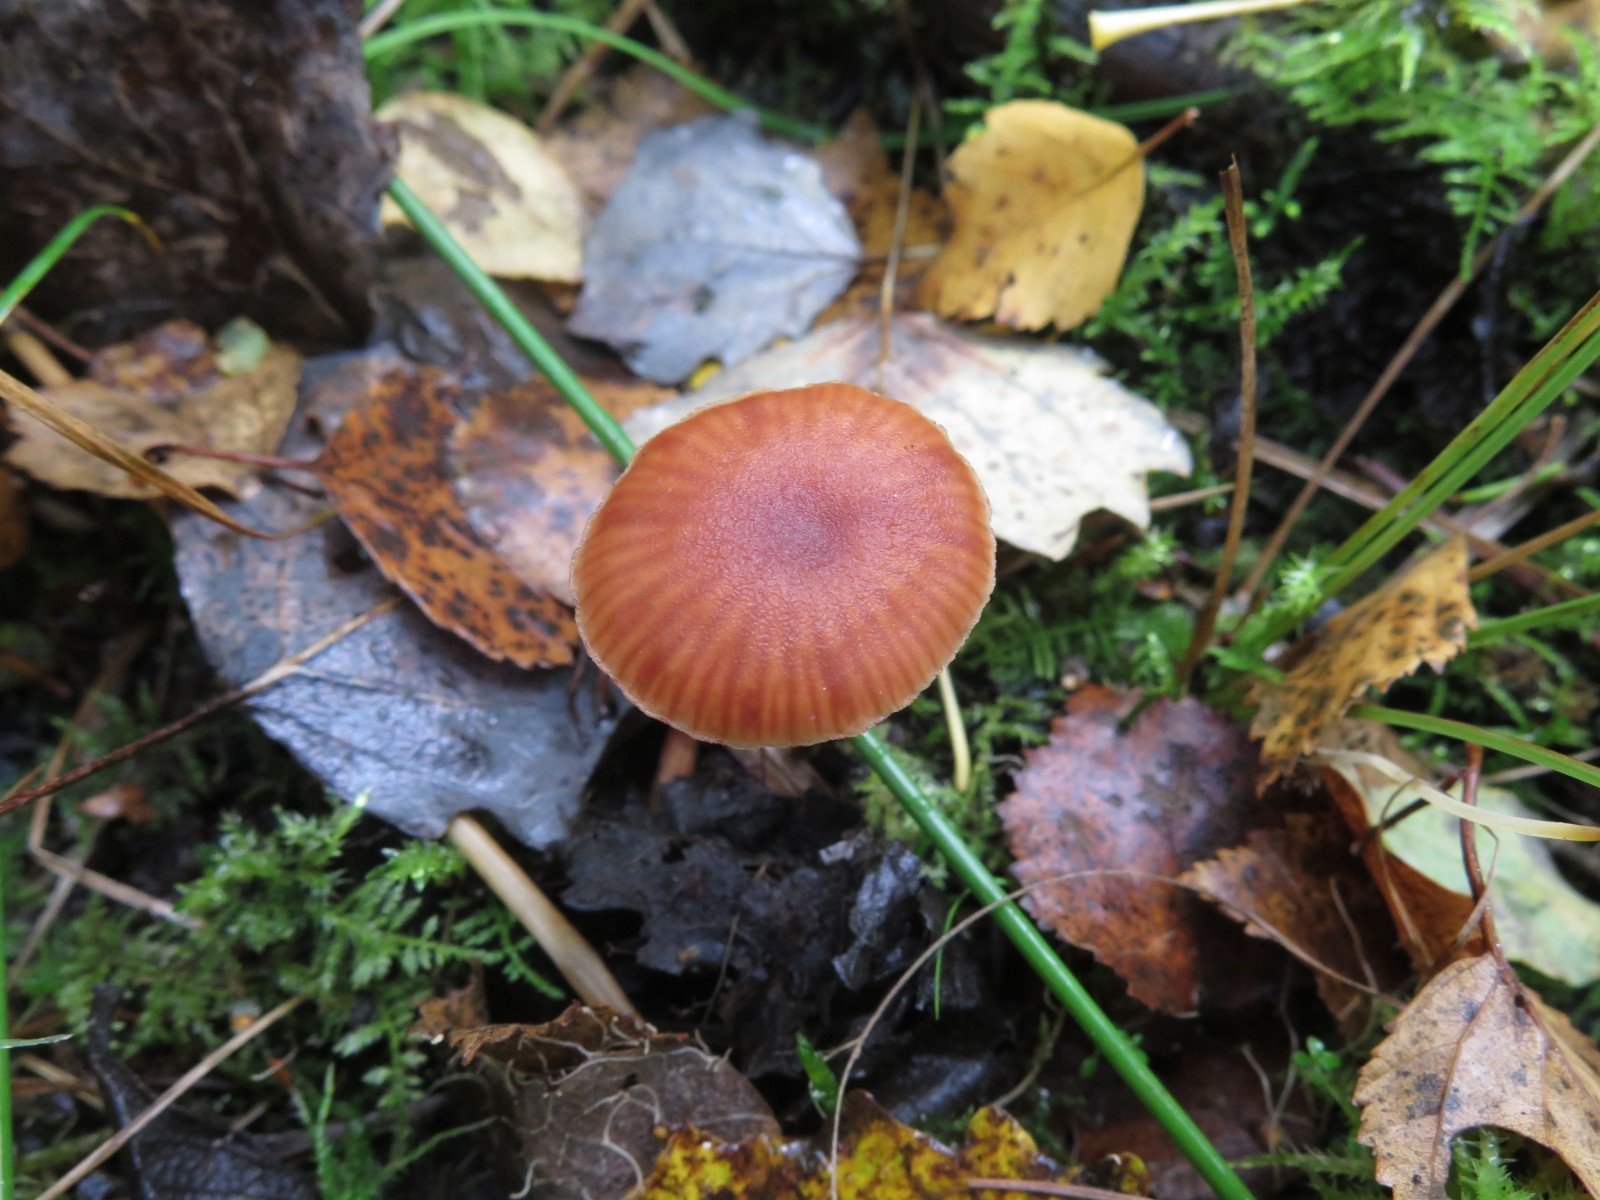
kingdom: Fungi
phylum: Basidiomycota
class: Agaricomycetes
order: Agaricales
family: Hydnangiaceae
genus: Laccaria
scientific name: Laccaria bicolor
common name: tvefarvet ametysthat
